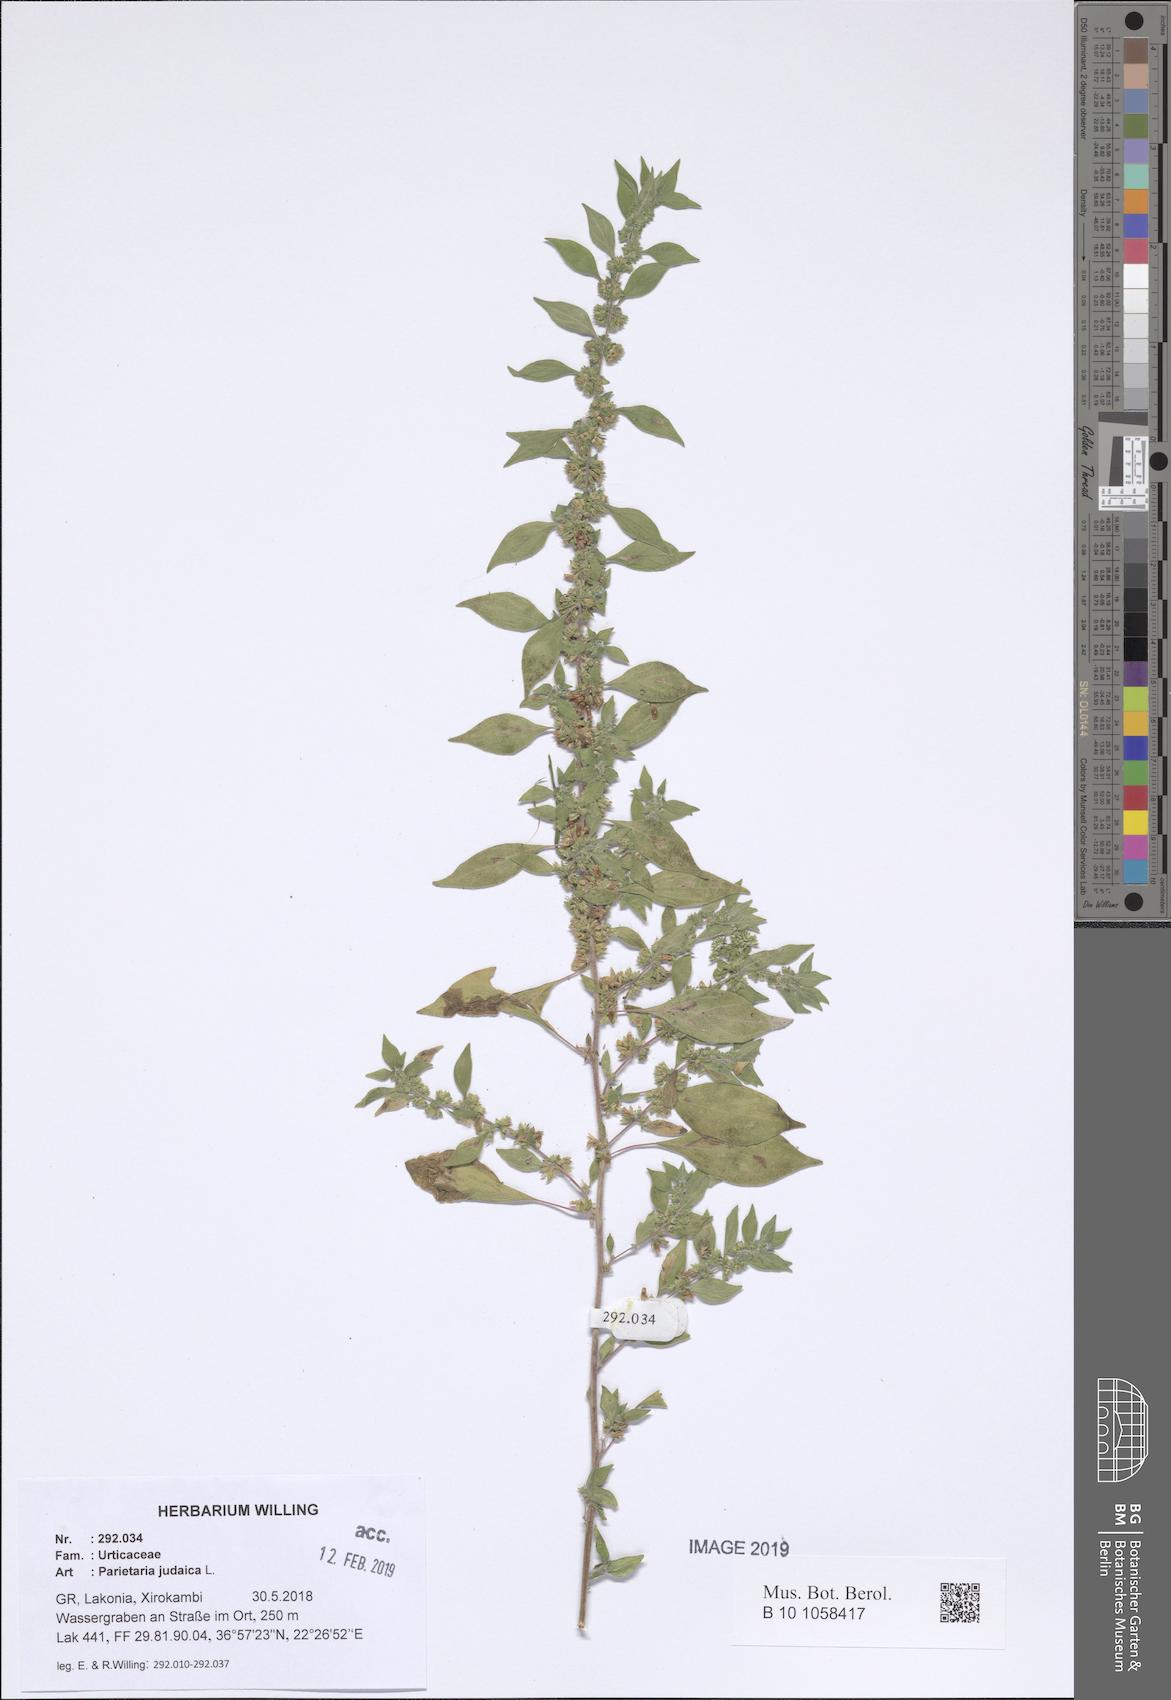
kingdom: Plantae
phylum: Tracheophyta
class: Magnoliopsida
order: Rosales
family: Urticaceae
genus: Parietaria
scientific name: Parietaria judaica
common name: Pellitory-of-the-wall
